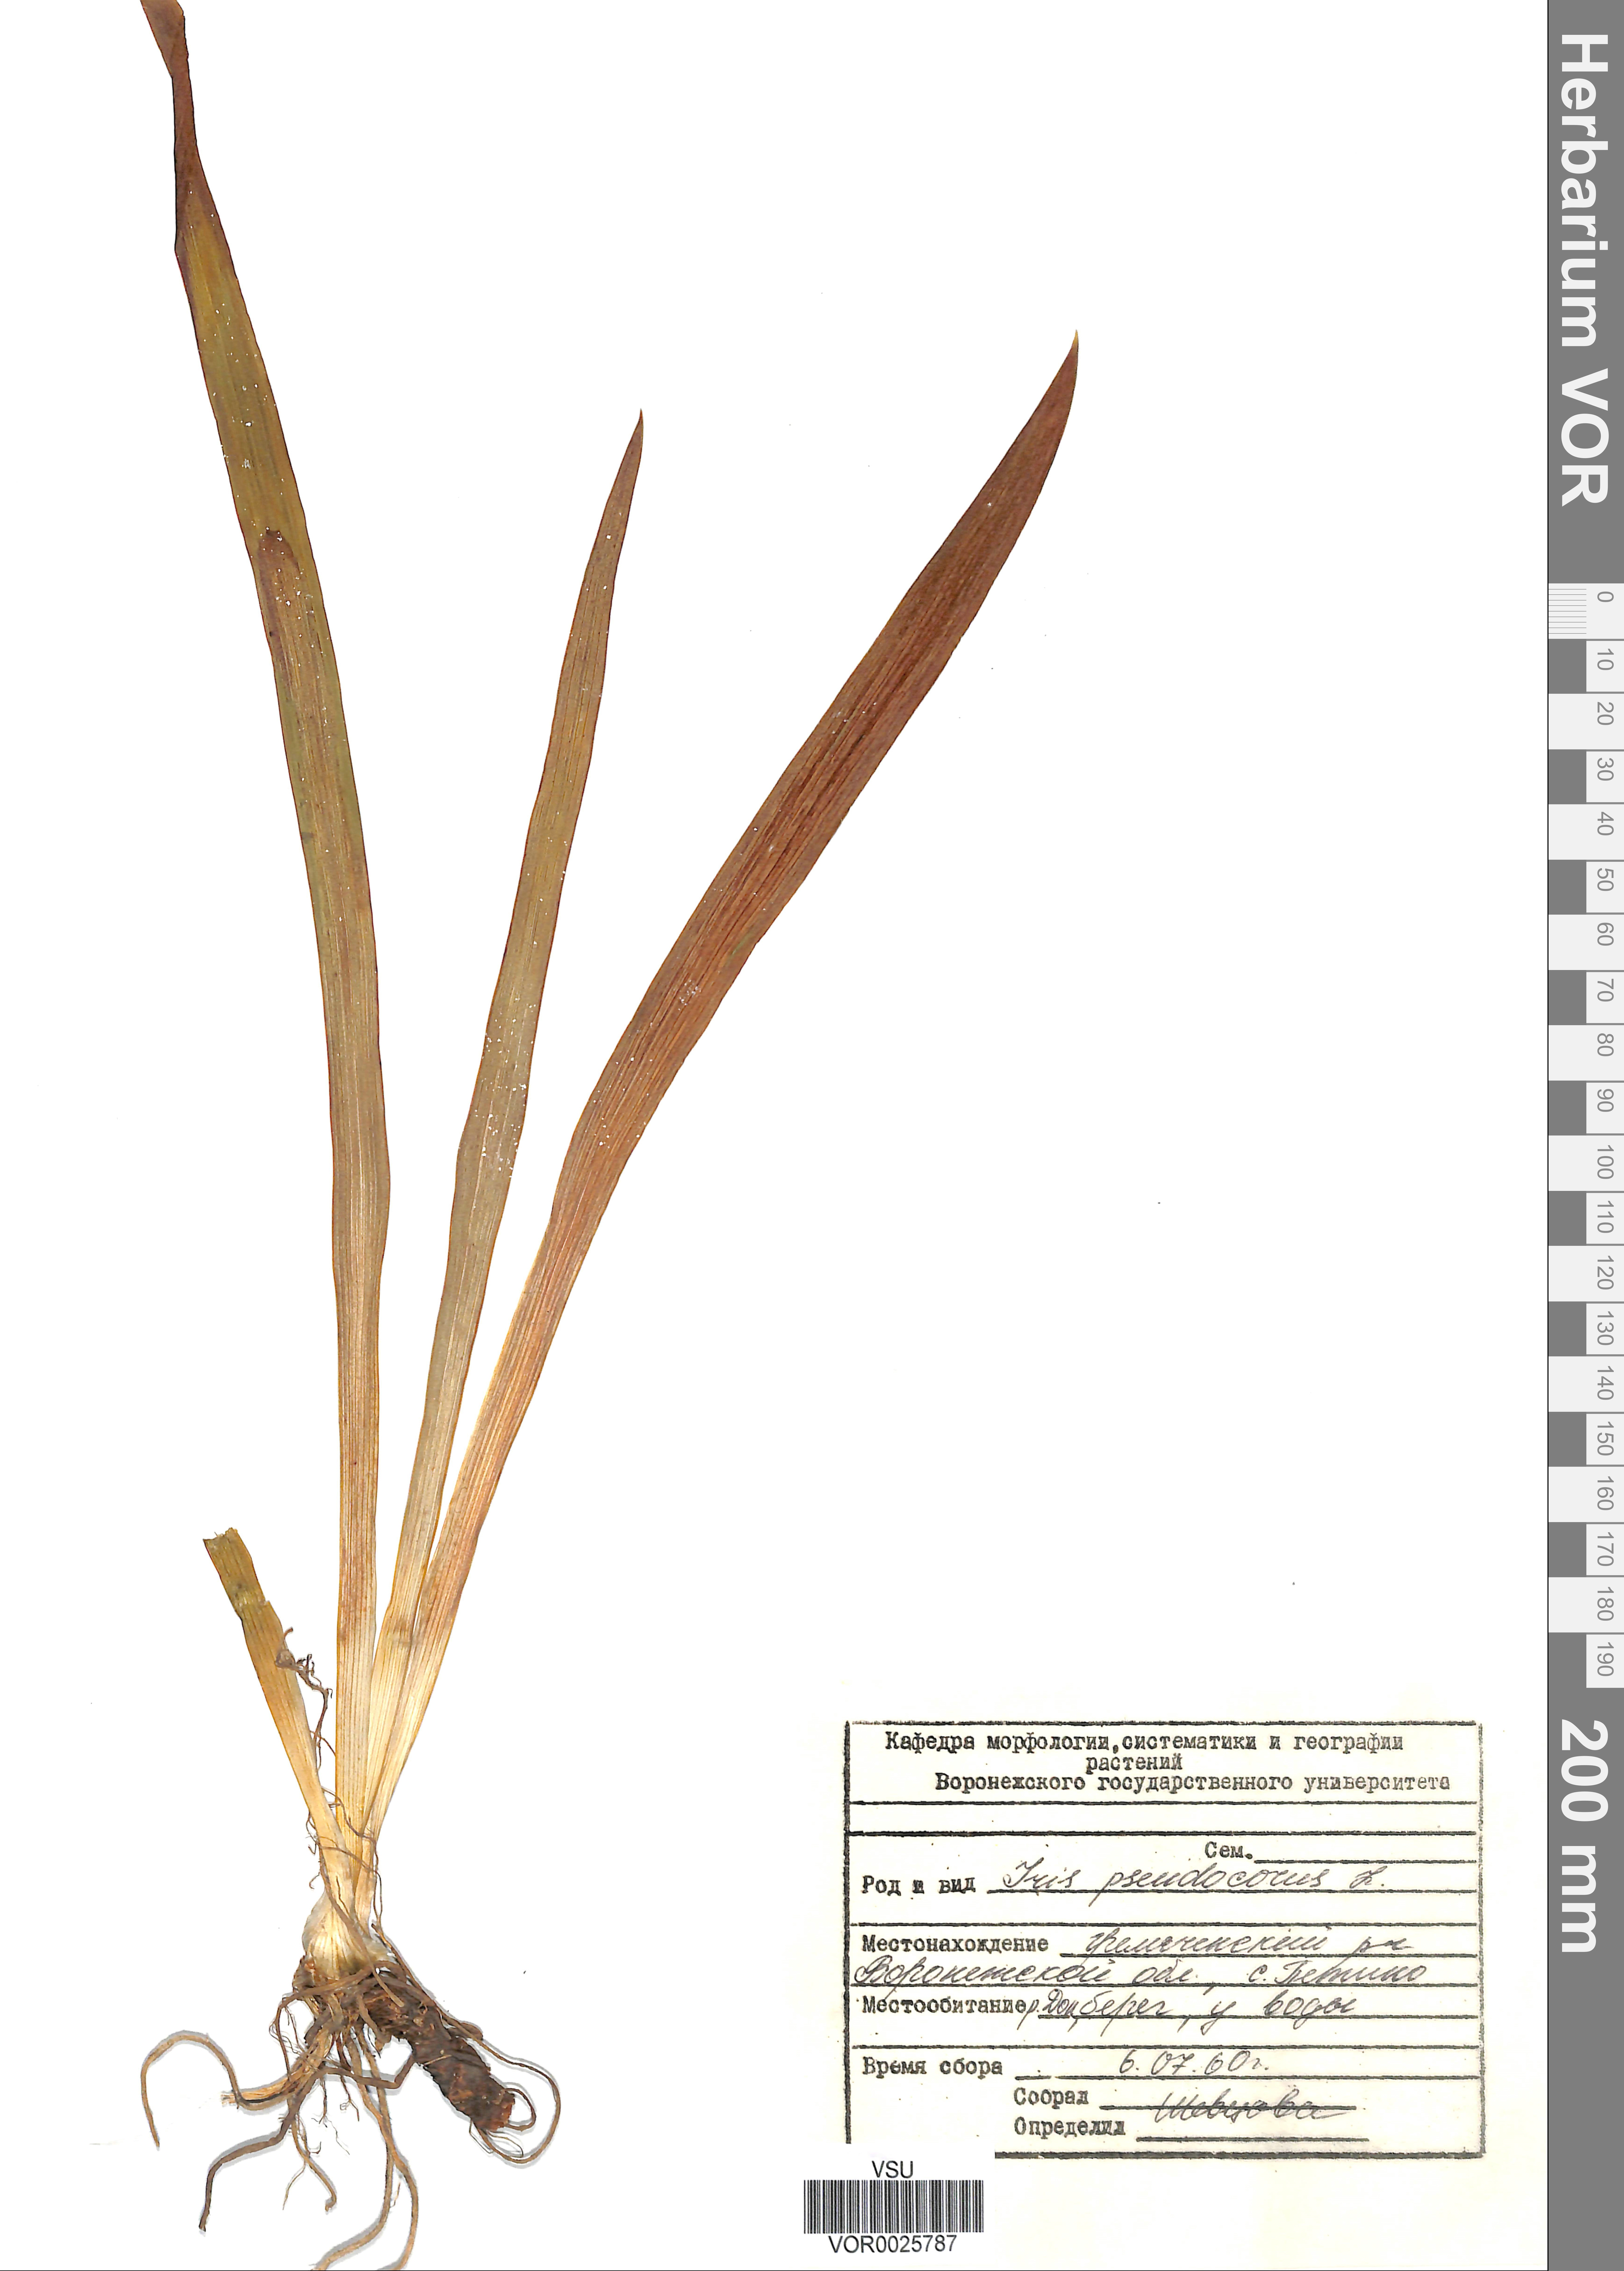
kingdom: Plantae
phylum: Tracheophyta
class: Liliopsida
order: Asparagales
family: Iridaceae
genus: Iris
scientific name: Iris pseudacorus
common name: Yellow flag
